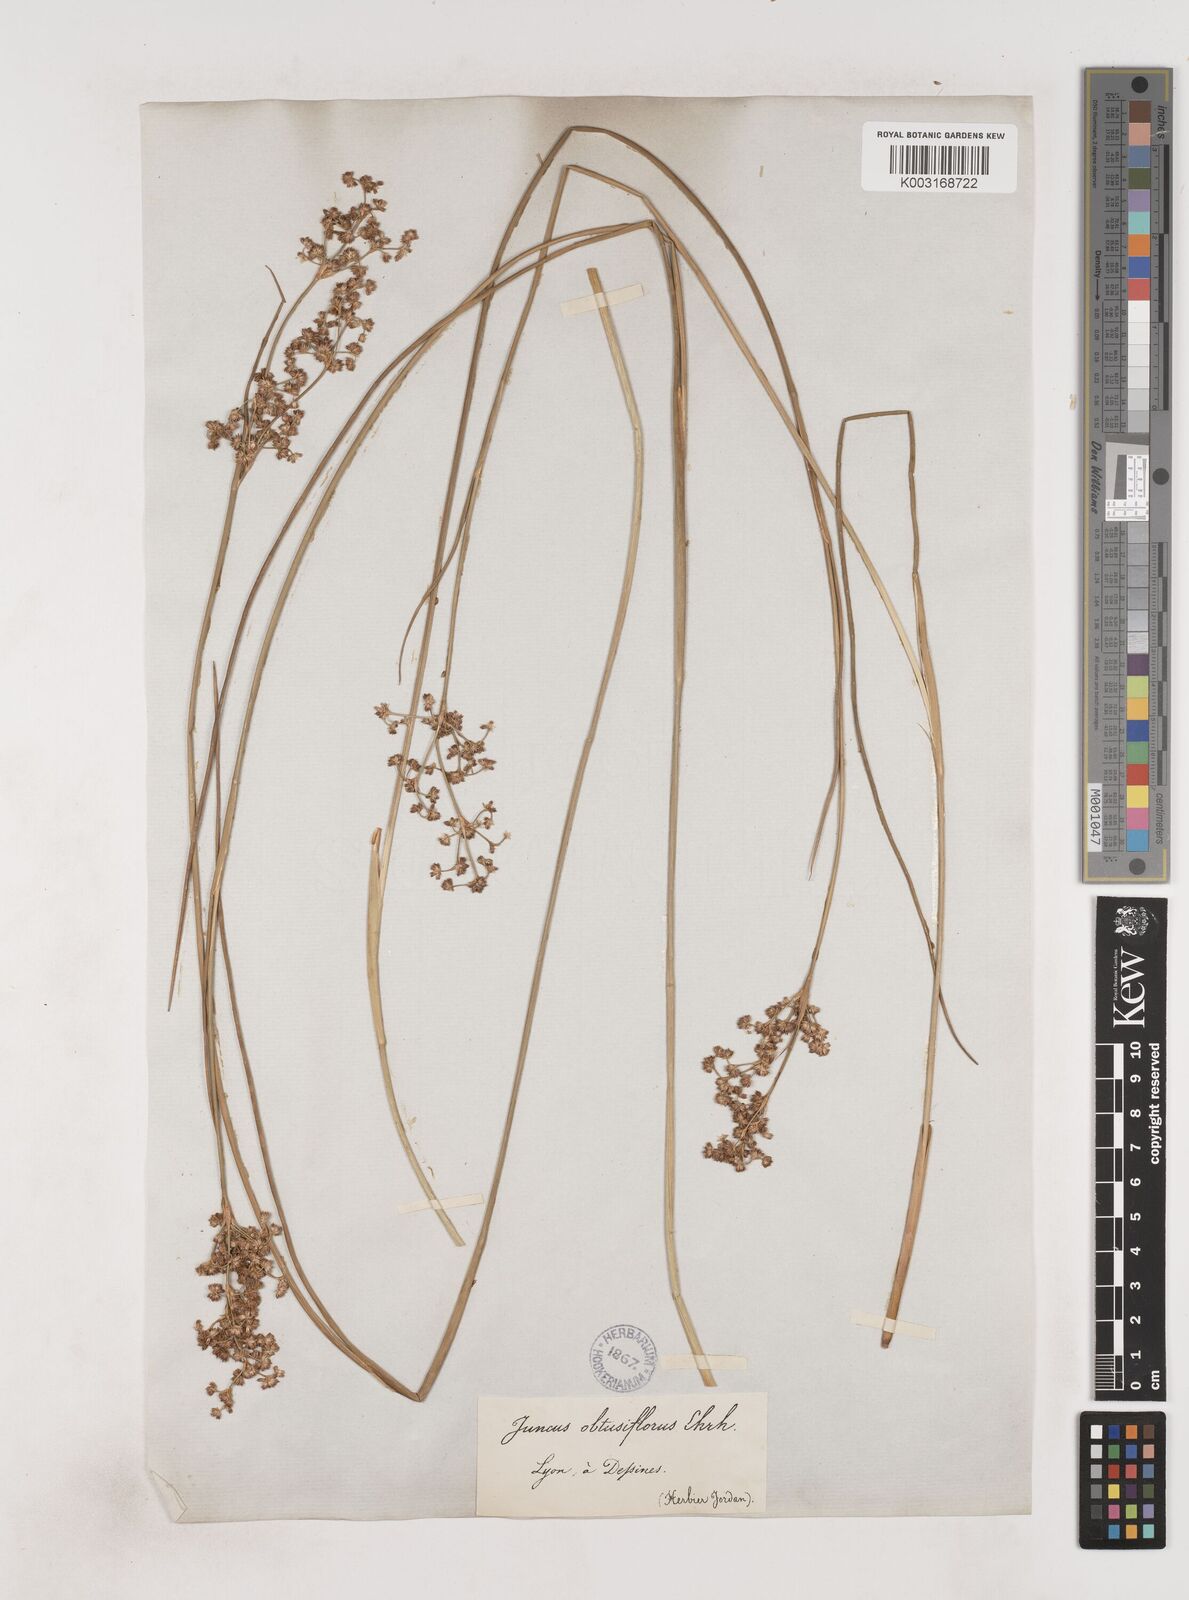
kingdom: Plantae
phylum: Tracheophyta
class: Liliopsida
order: Poales
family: Juncaceae
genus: Juncus
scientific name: Juncus subnodulosus
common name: Blunt-flowered rush
